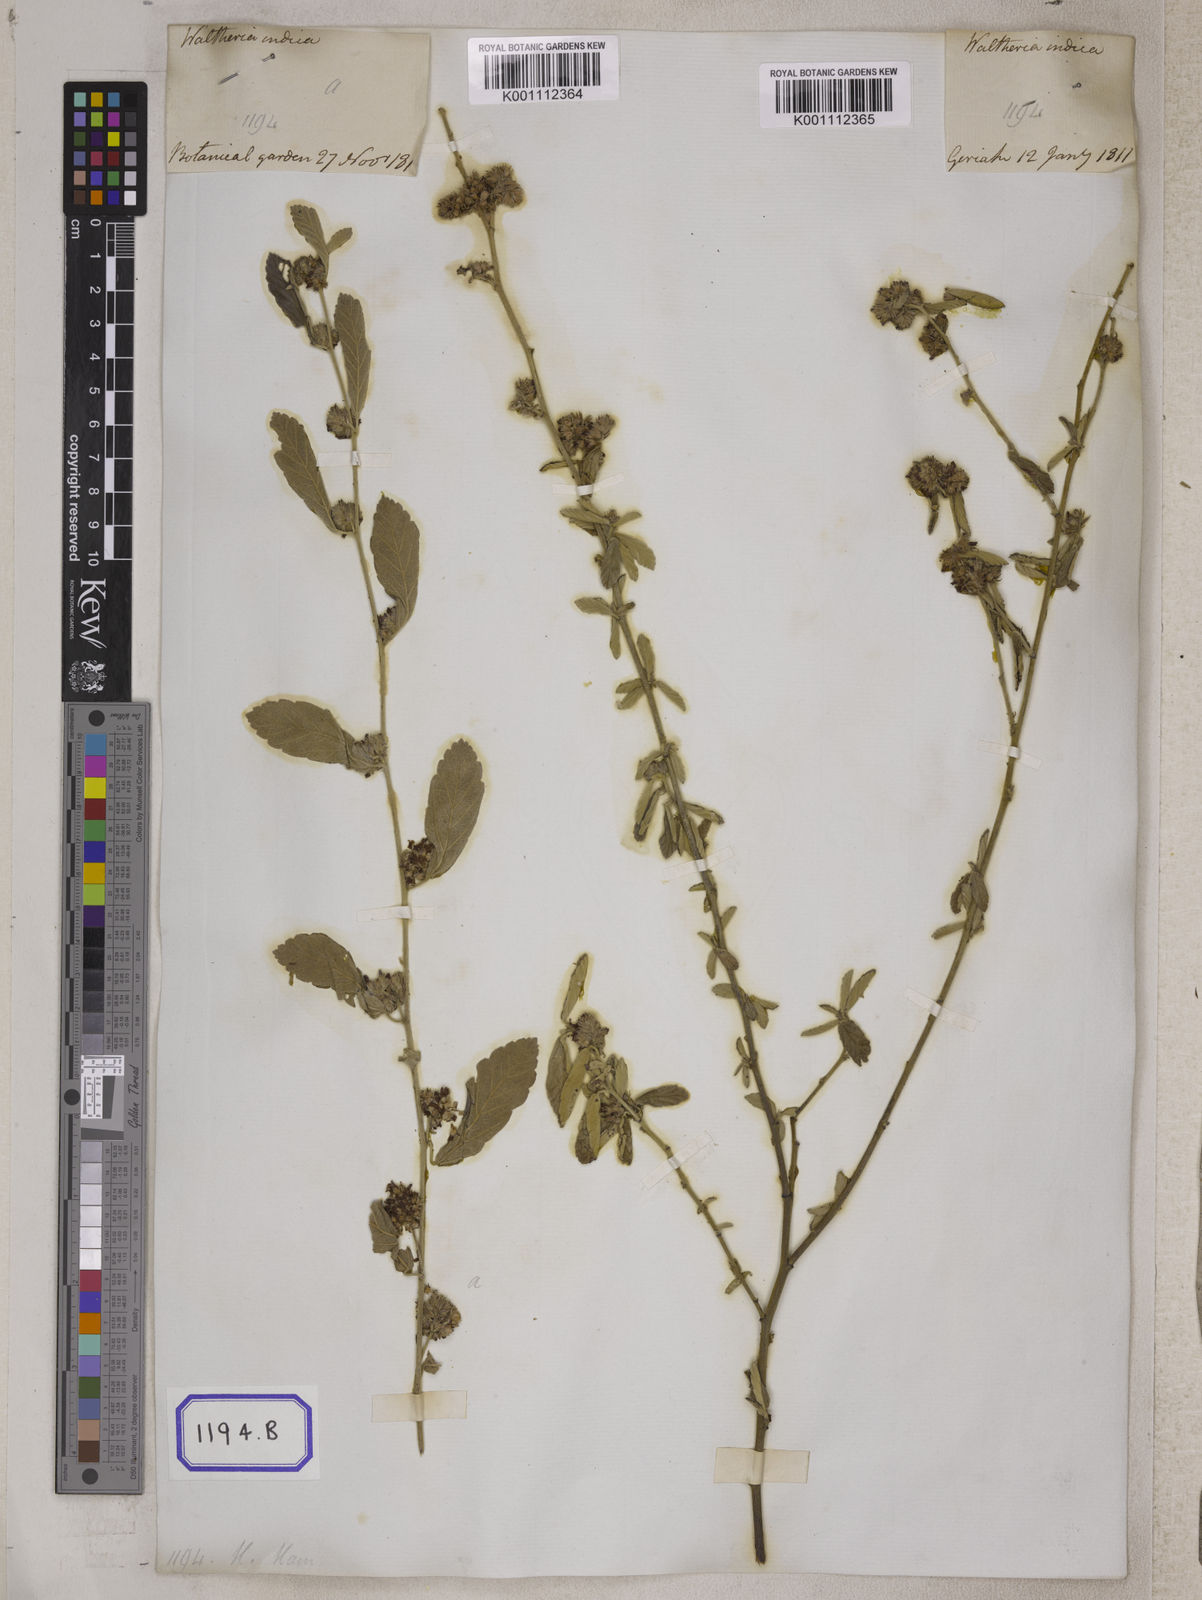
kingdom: Plantae
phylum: Tracheophyta
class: Magnoliopsida
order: Malvales
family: Malvaceae
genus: Waltheria
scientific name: Waltheria indica
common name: Leather-coat
